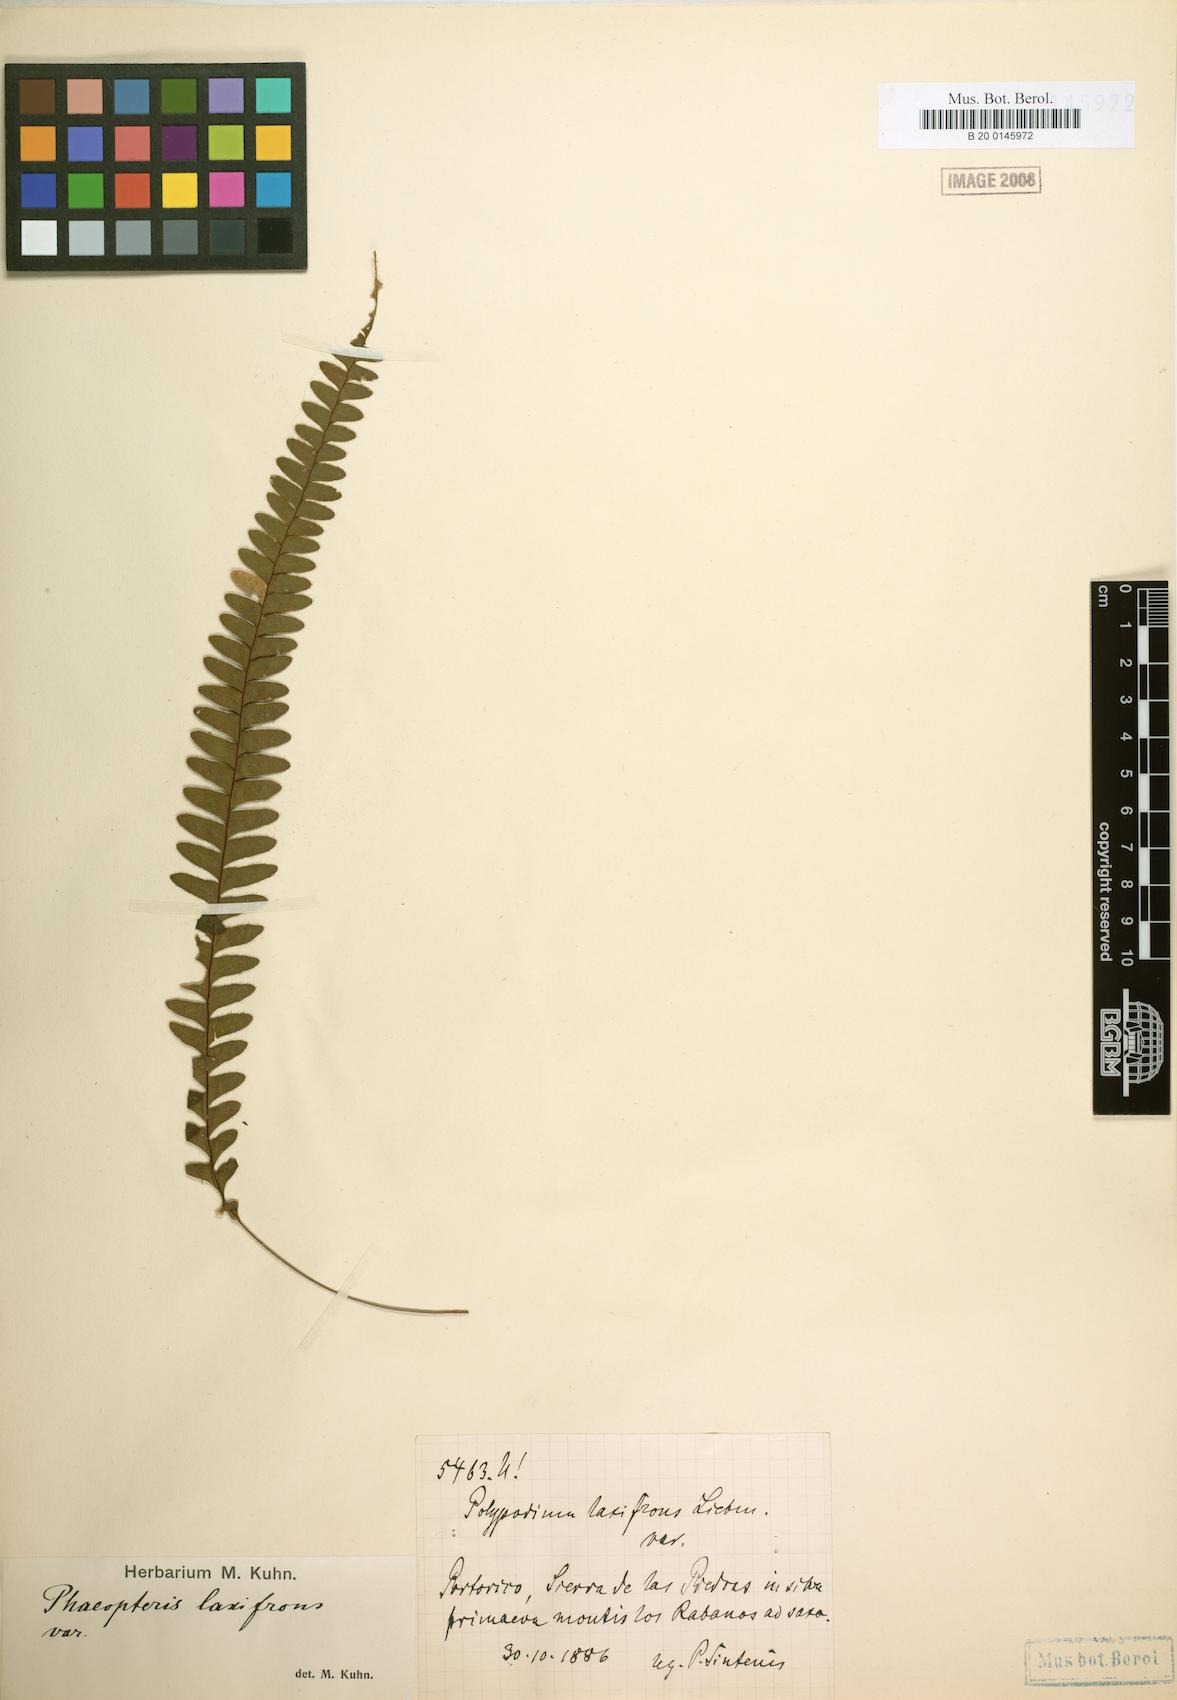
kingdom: Plantae
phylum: Tracheophyta
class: Polypodiopsida
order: Polypodiales
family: Polypodiaceae
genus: Terpsichore
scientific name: Terpsichore asplenifolia
